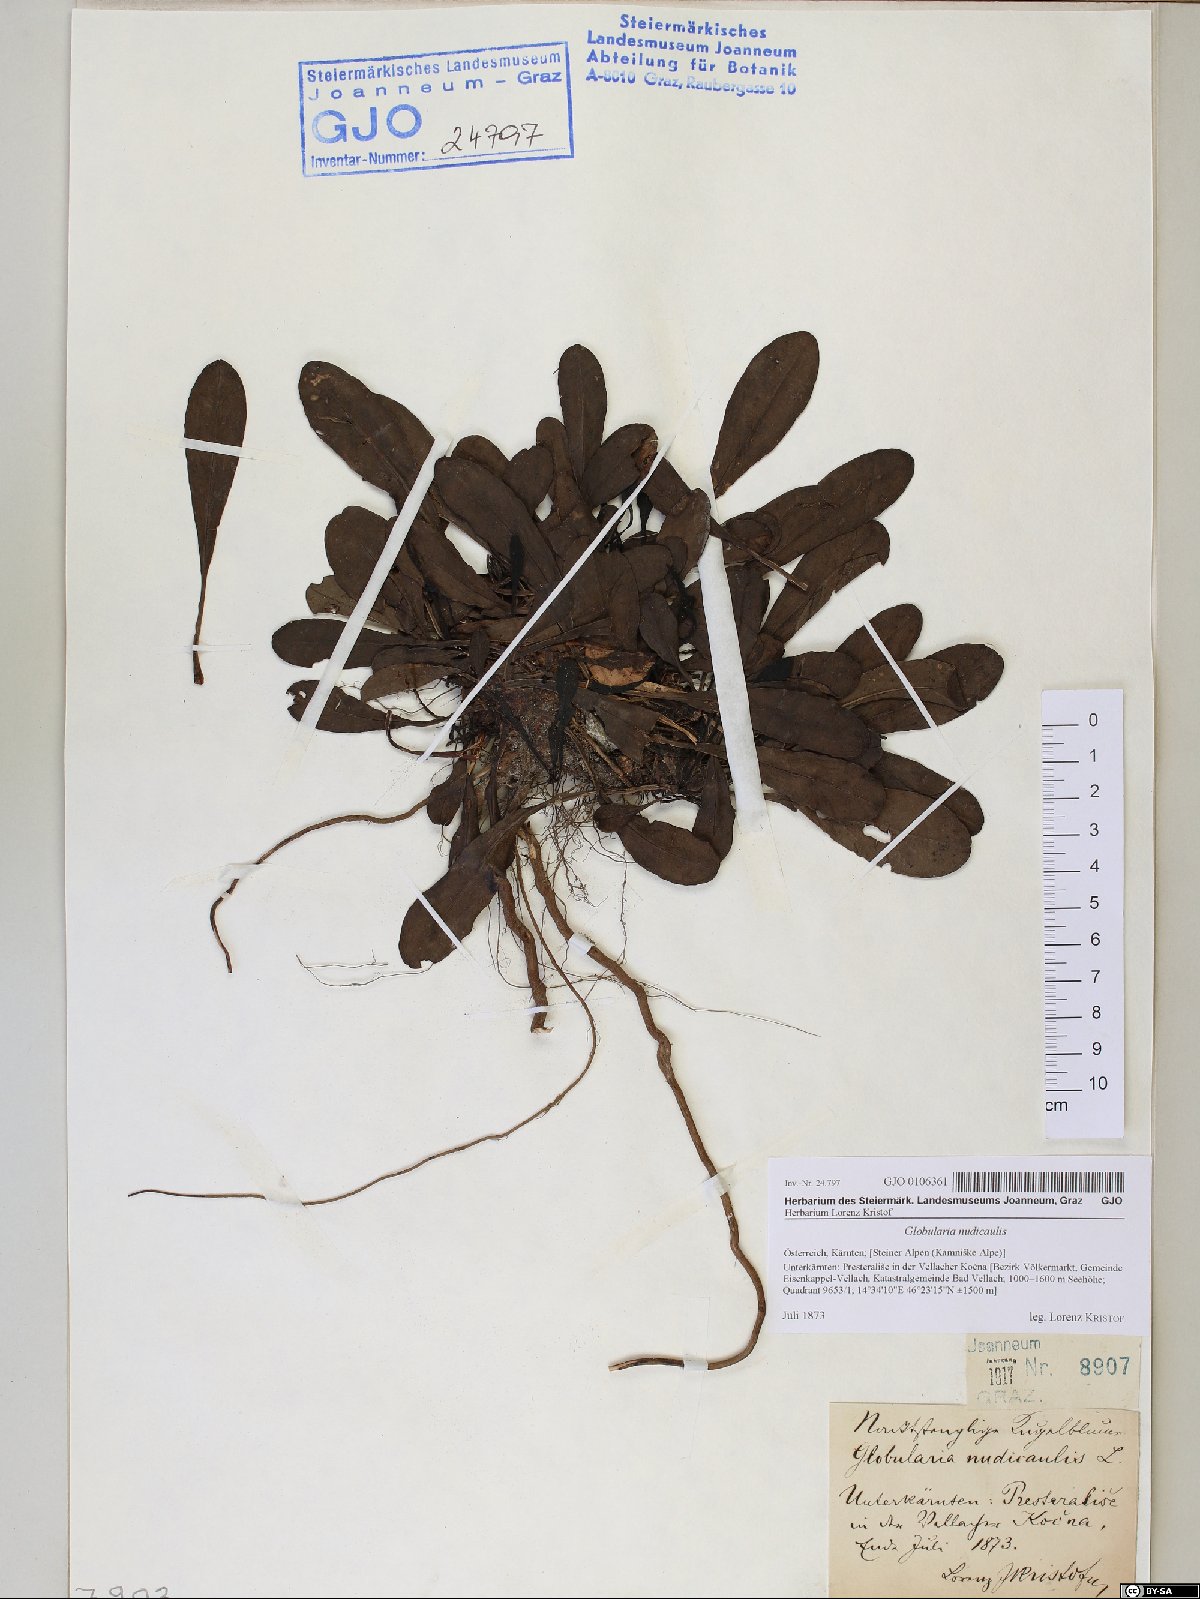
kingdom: Plantae
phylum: Tracheophyta
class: Magnoliopsida
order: Lamiales
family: Plantaginaceae
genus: Globularia
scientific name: Globularia nudicaulis
